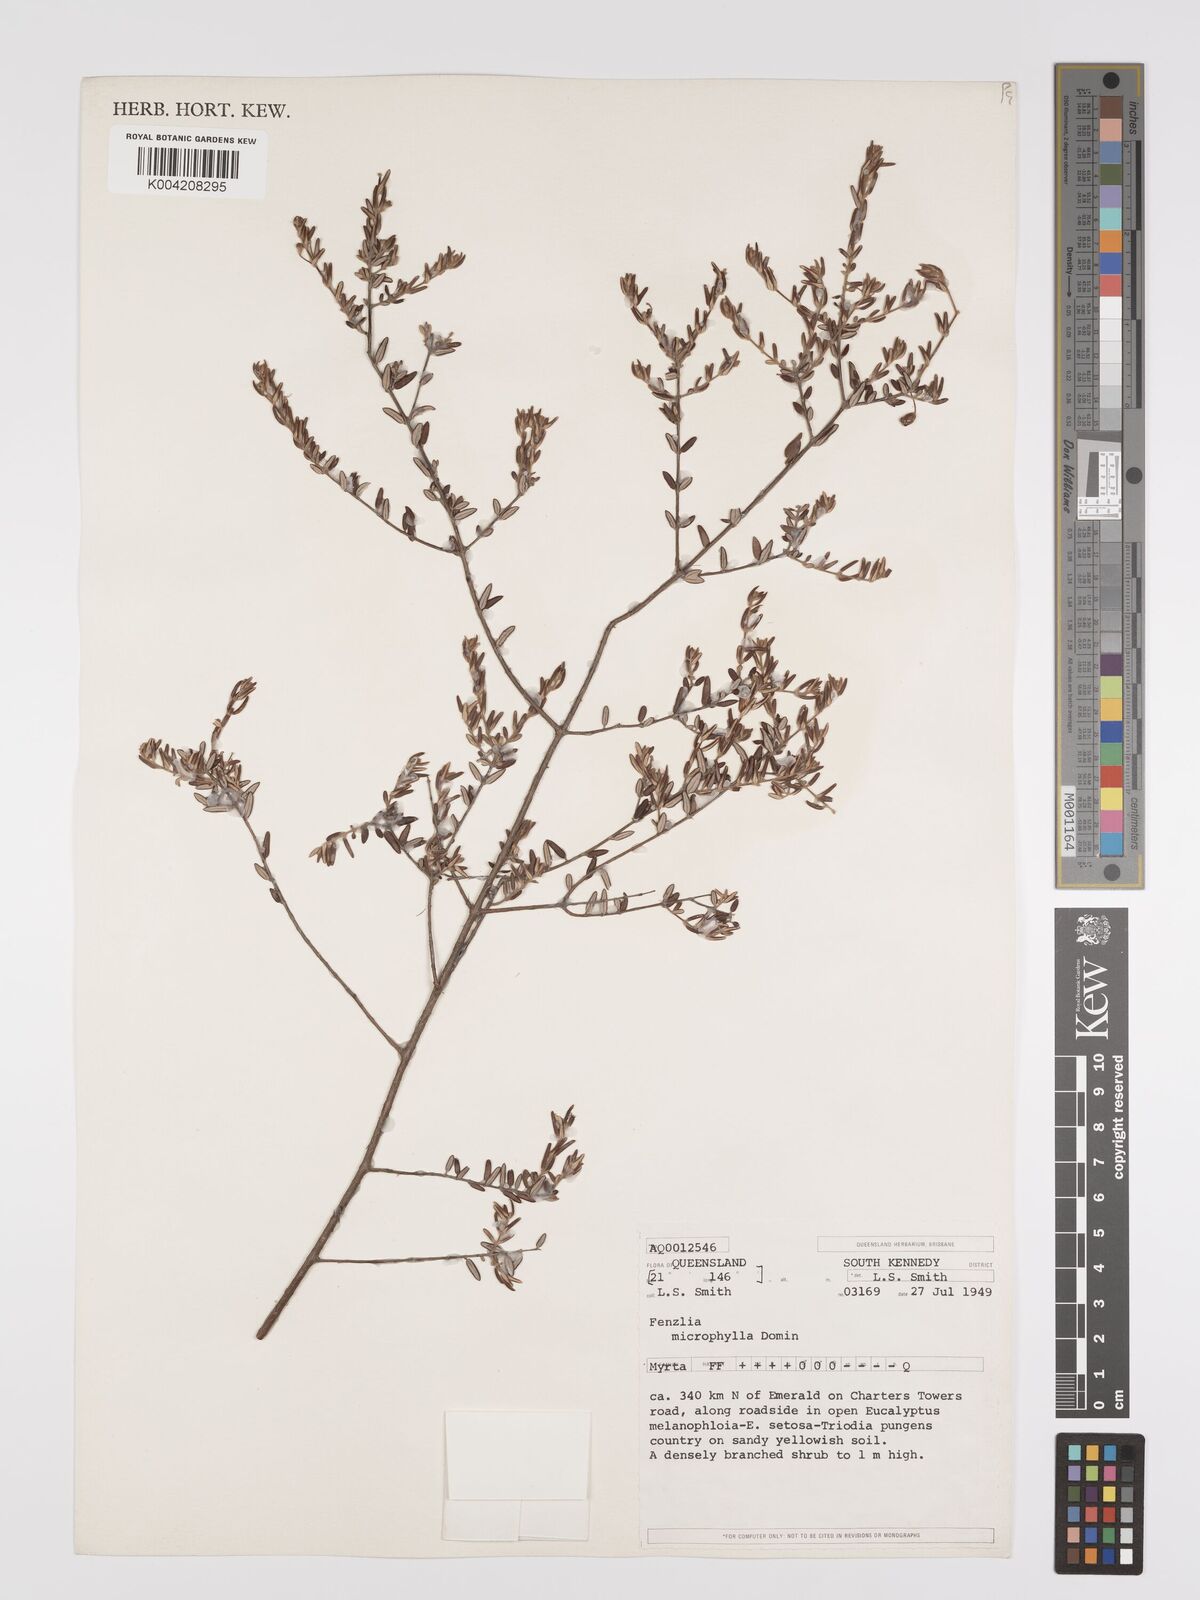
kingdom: Plantae
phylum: Tracheophyta
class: Magnoliopsida
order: Myrtales
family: Myrtaceae
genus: Lithomyrtus
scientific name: Lithomyrtus microphylla
